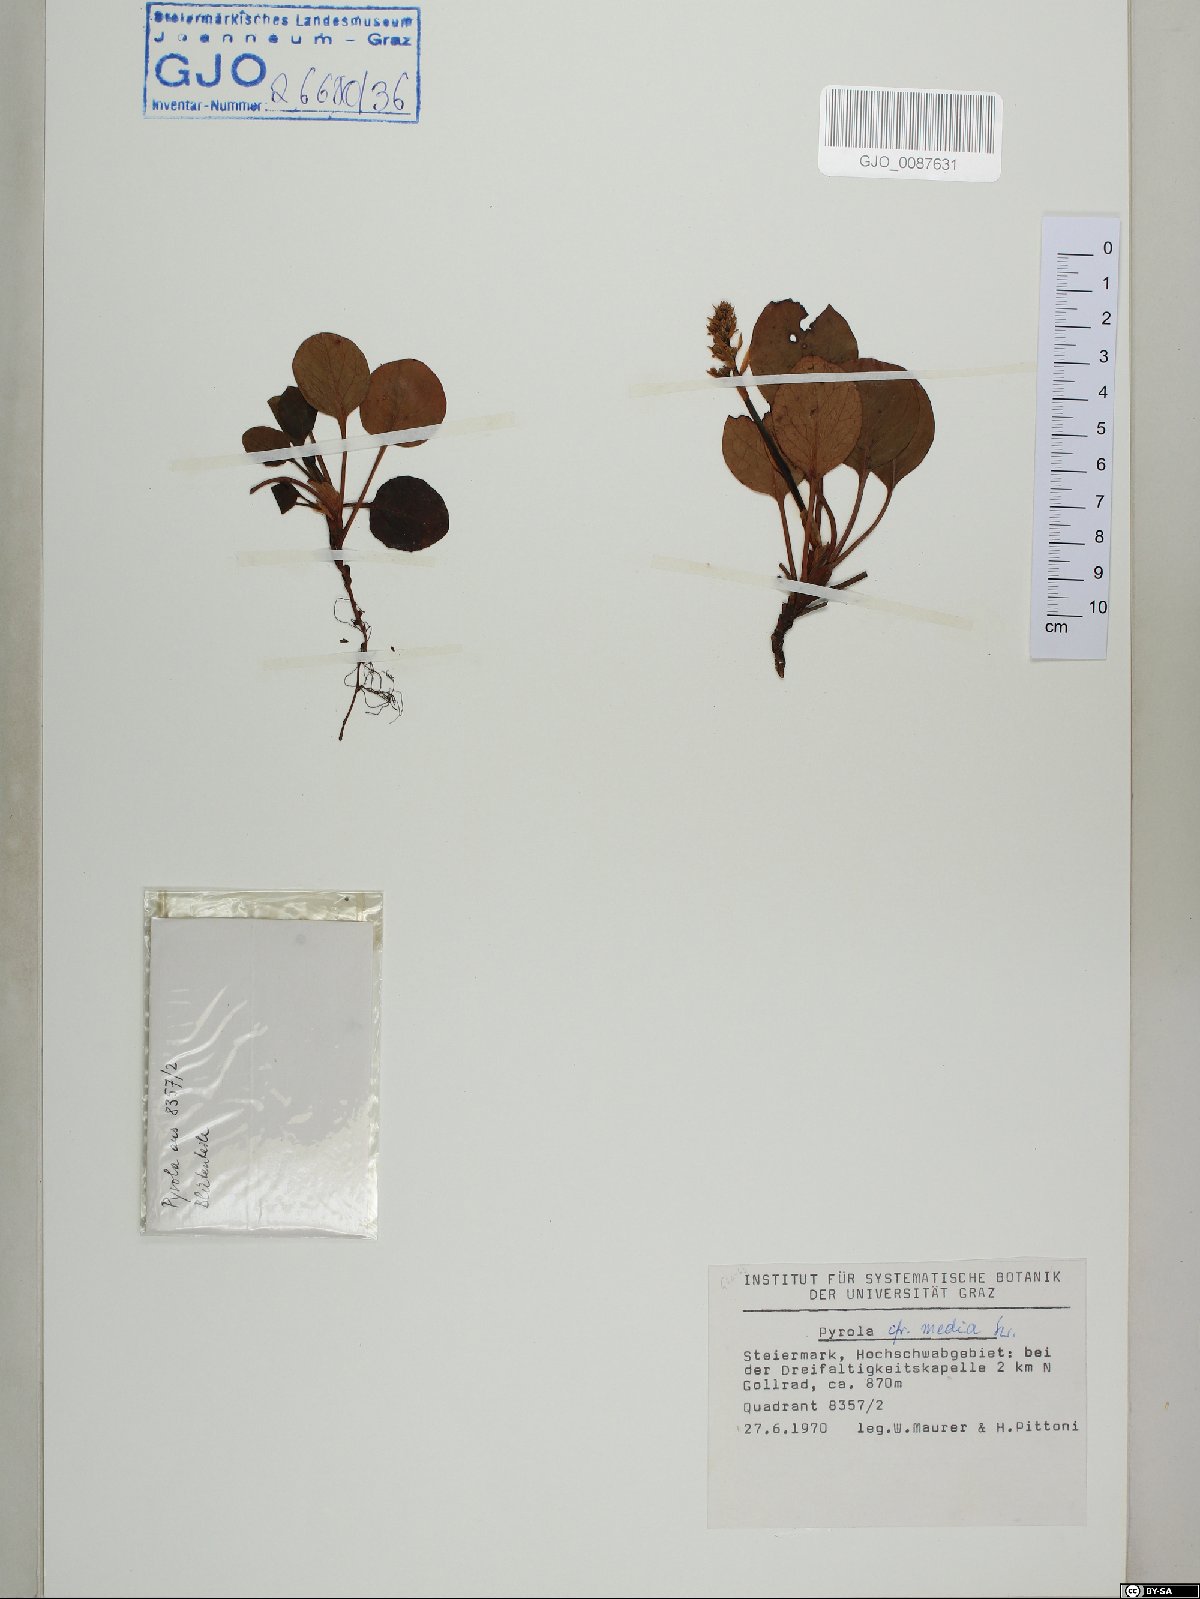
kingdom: Plantae
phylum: Tracheophyta
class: Magnoliopsida
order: Ericales
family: Ericaceae
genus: Pyrola
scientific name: Pyrola media
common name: Intermediate wintergreen
